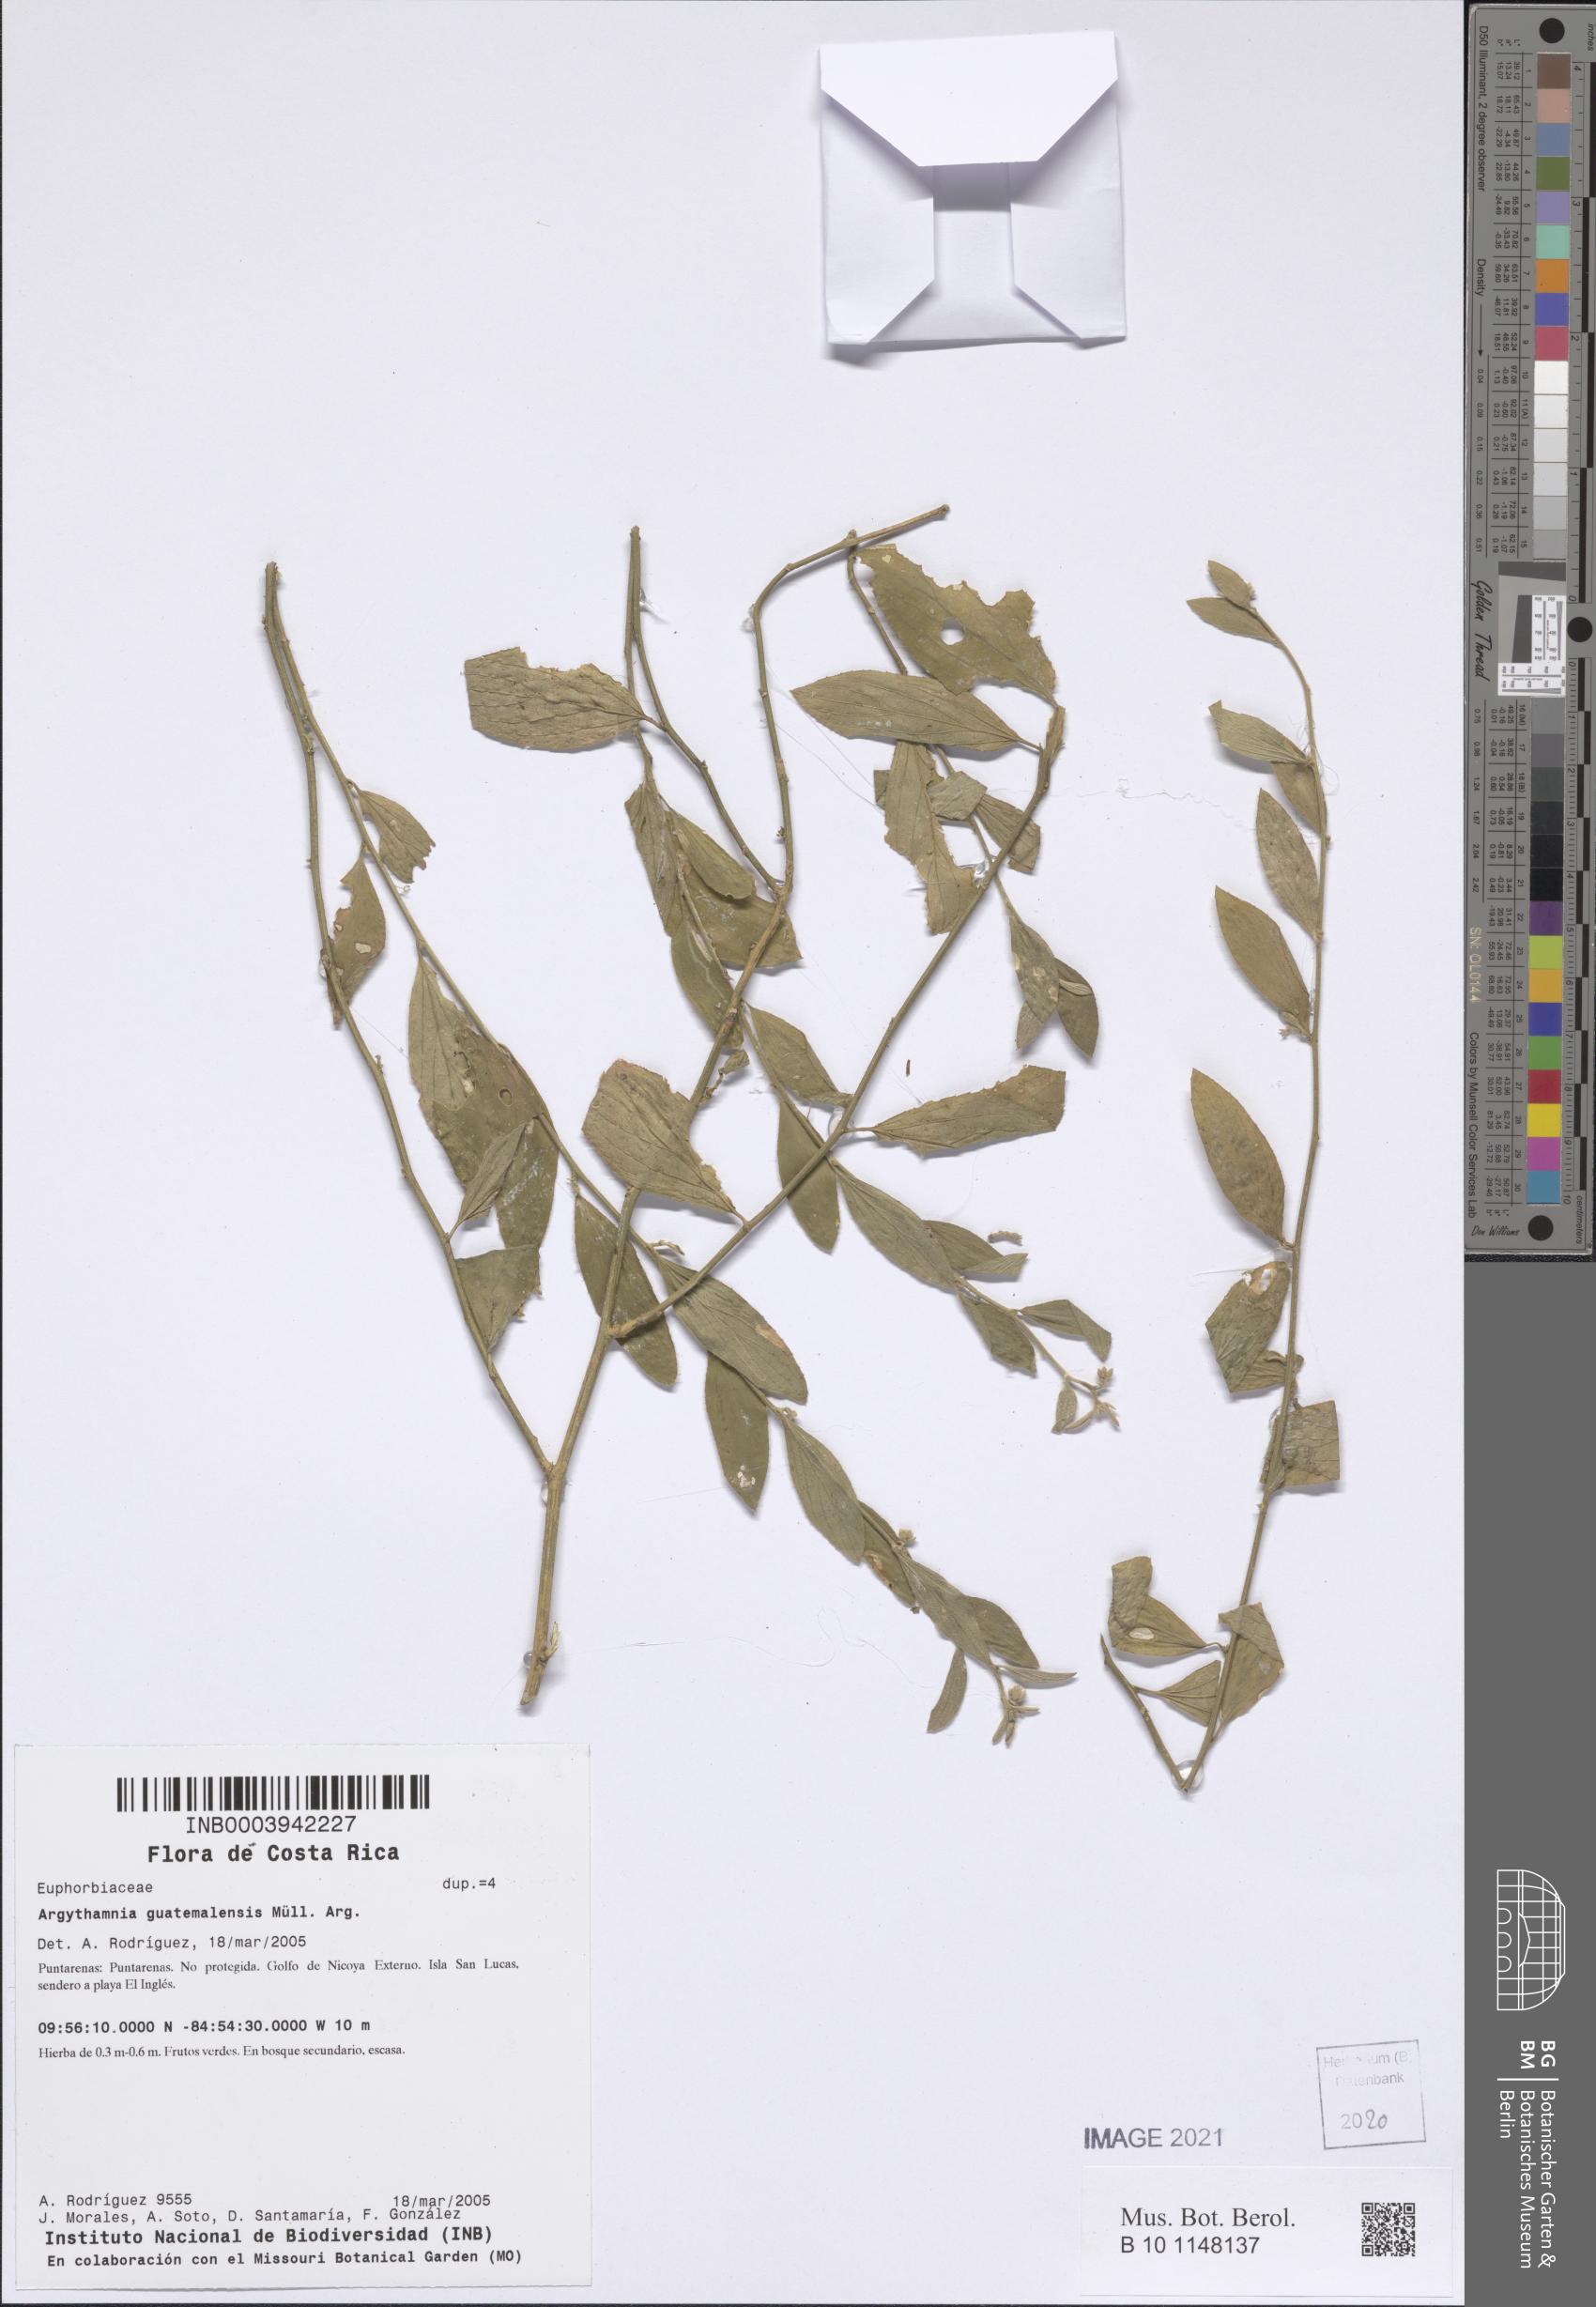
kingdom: Plantae
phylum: Tracheophyta
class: Magnoliopsida
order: Malpighiales
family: Euphorbiaceae
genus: Ditaxis
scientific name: Ditaxis guatemalensis
